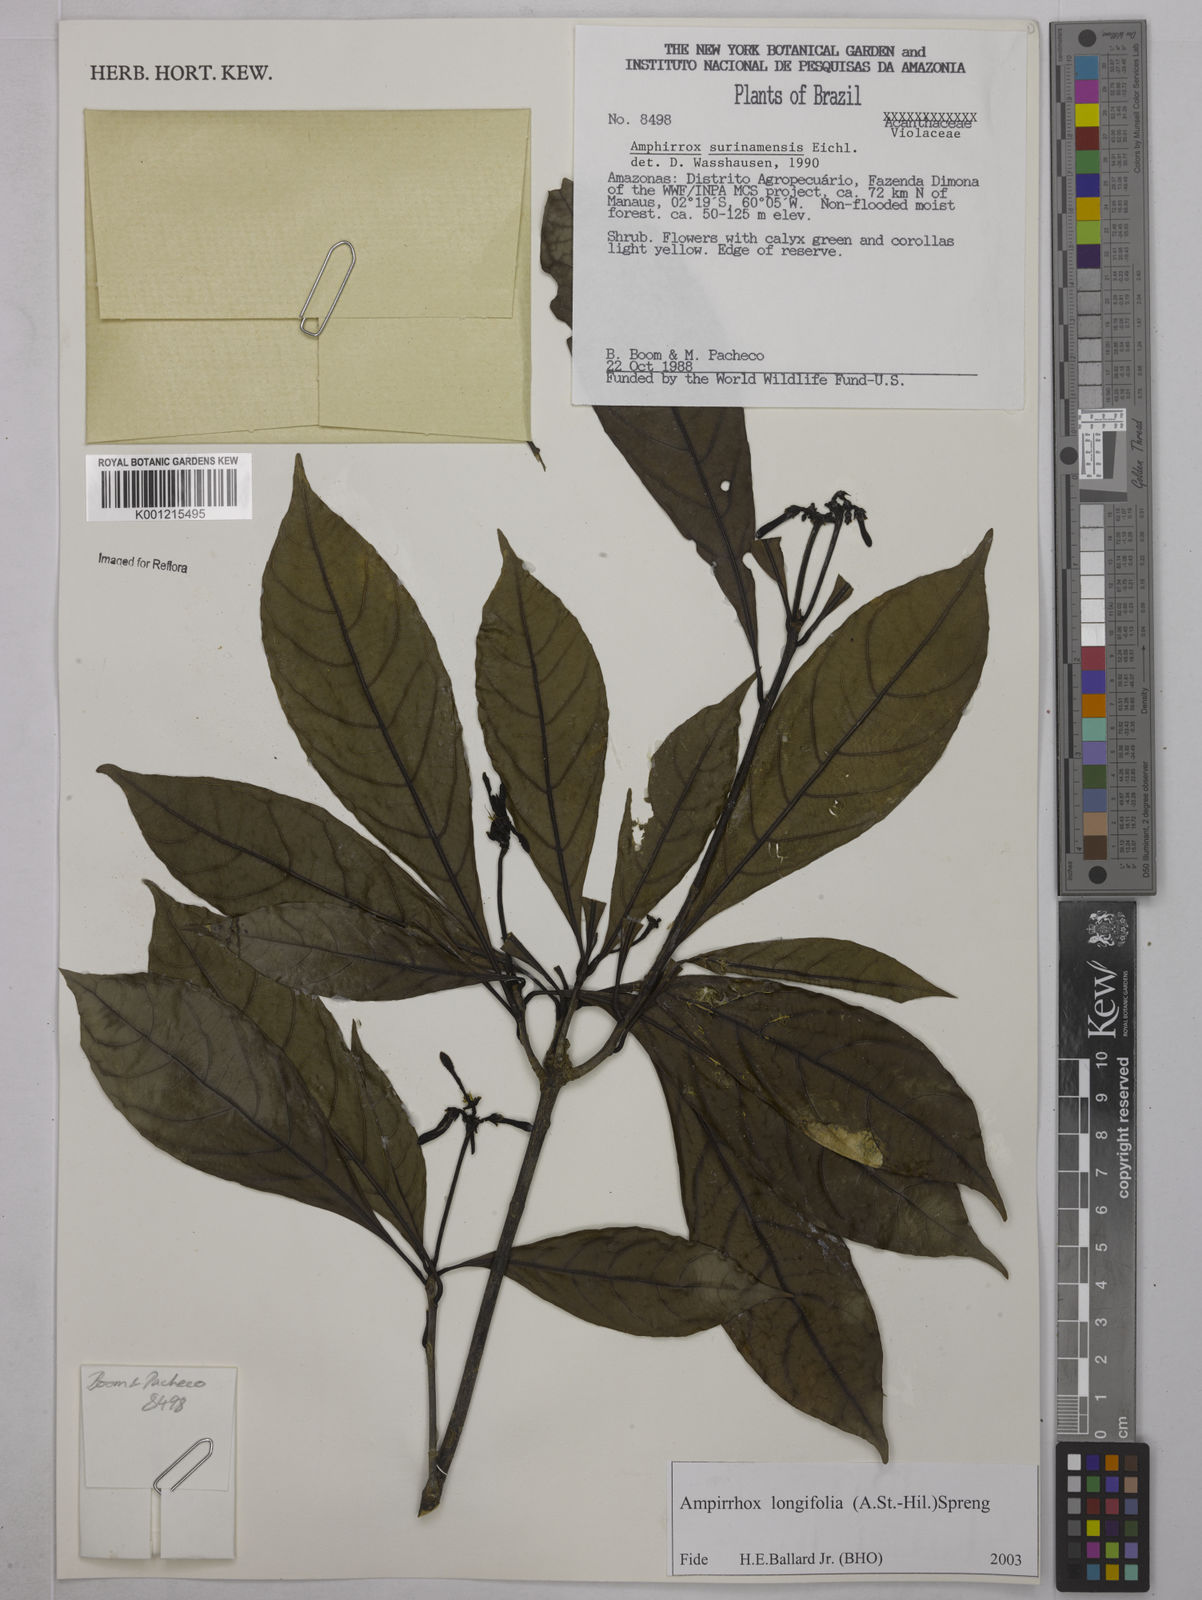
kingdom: Plantae
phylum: Tracheophyta
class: Magnoliopsida
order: Malpighiales
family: Violaceae
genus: Amphirrhox
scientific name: Amphirrhox longifolia
